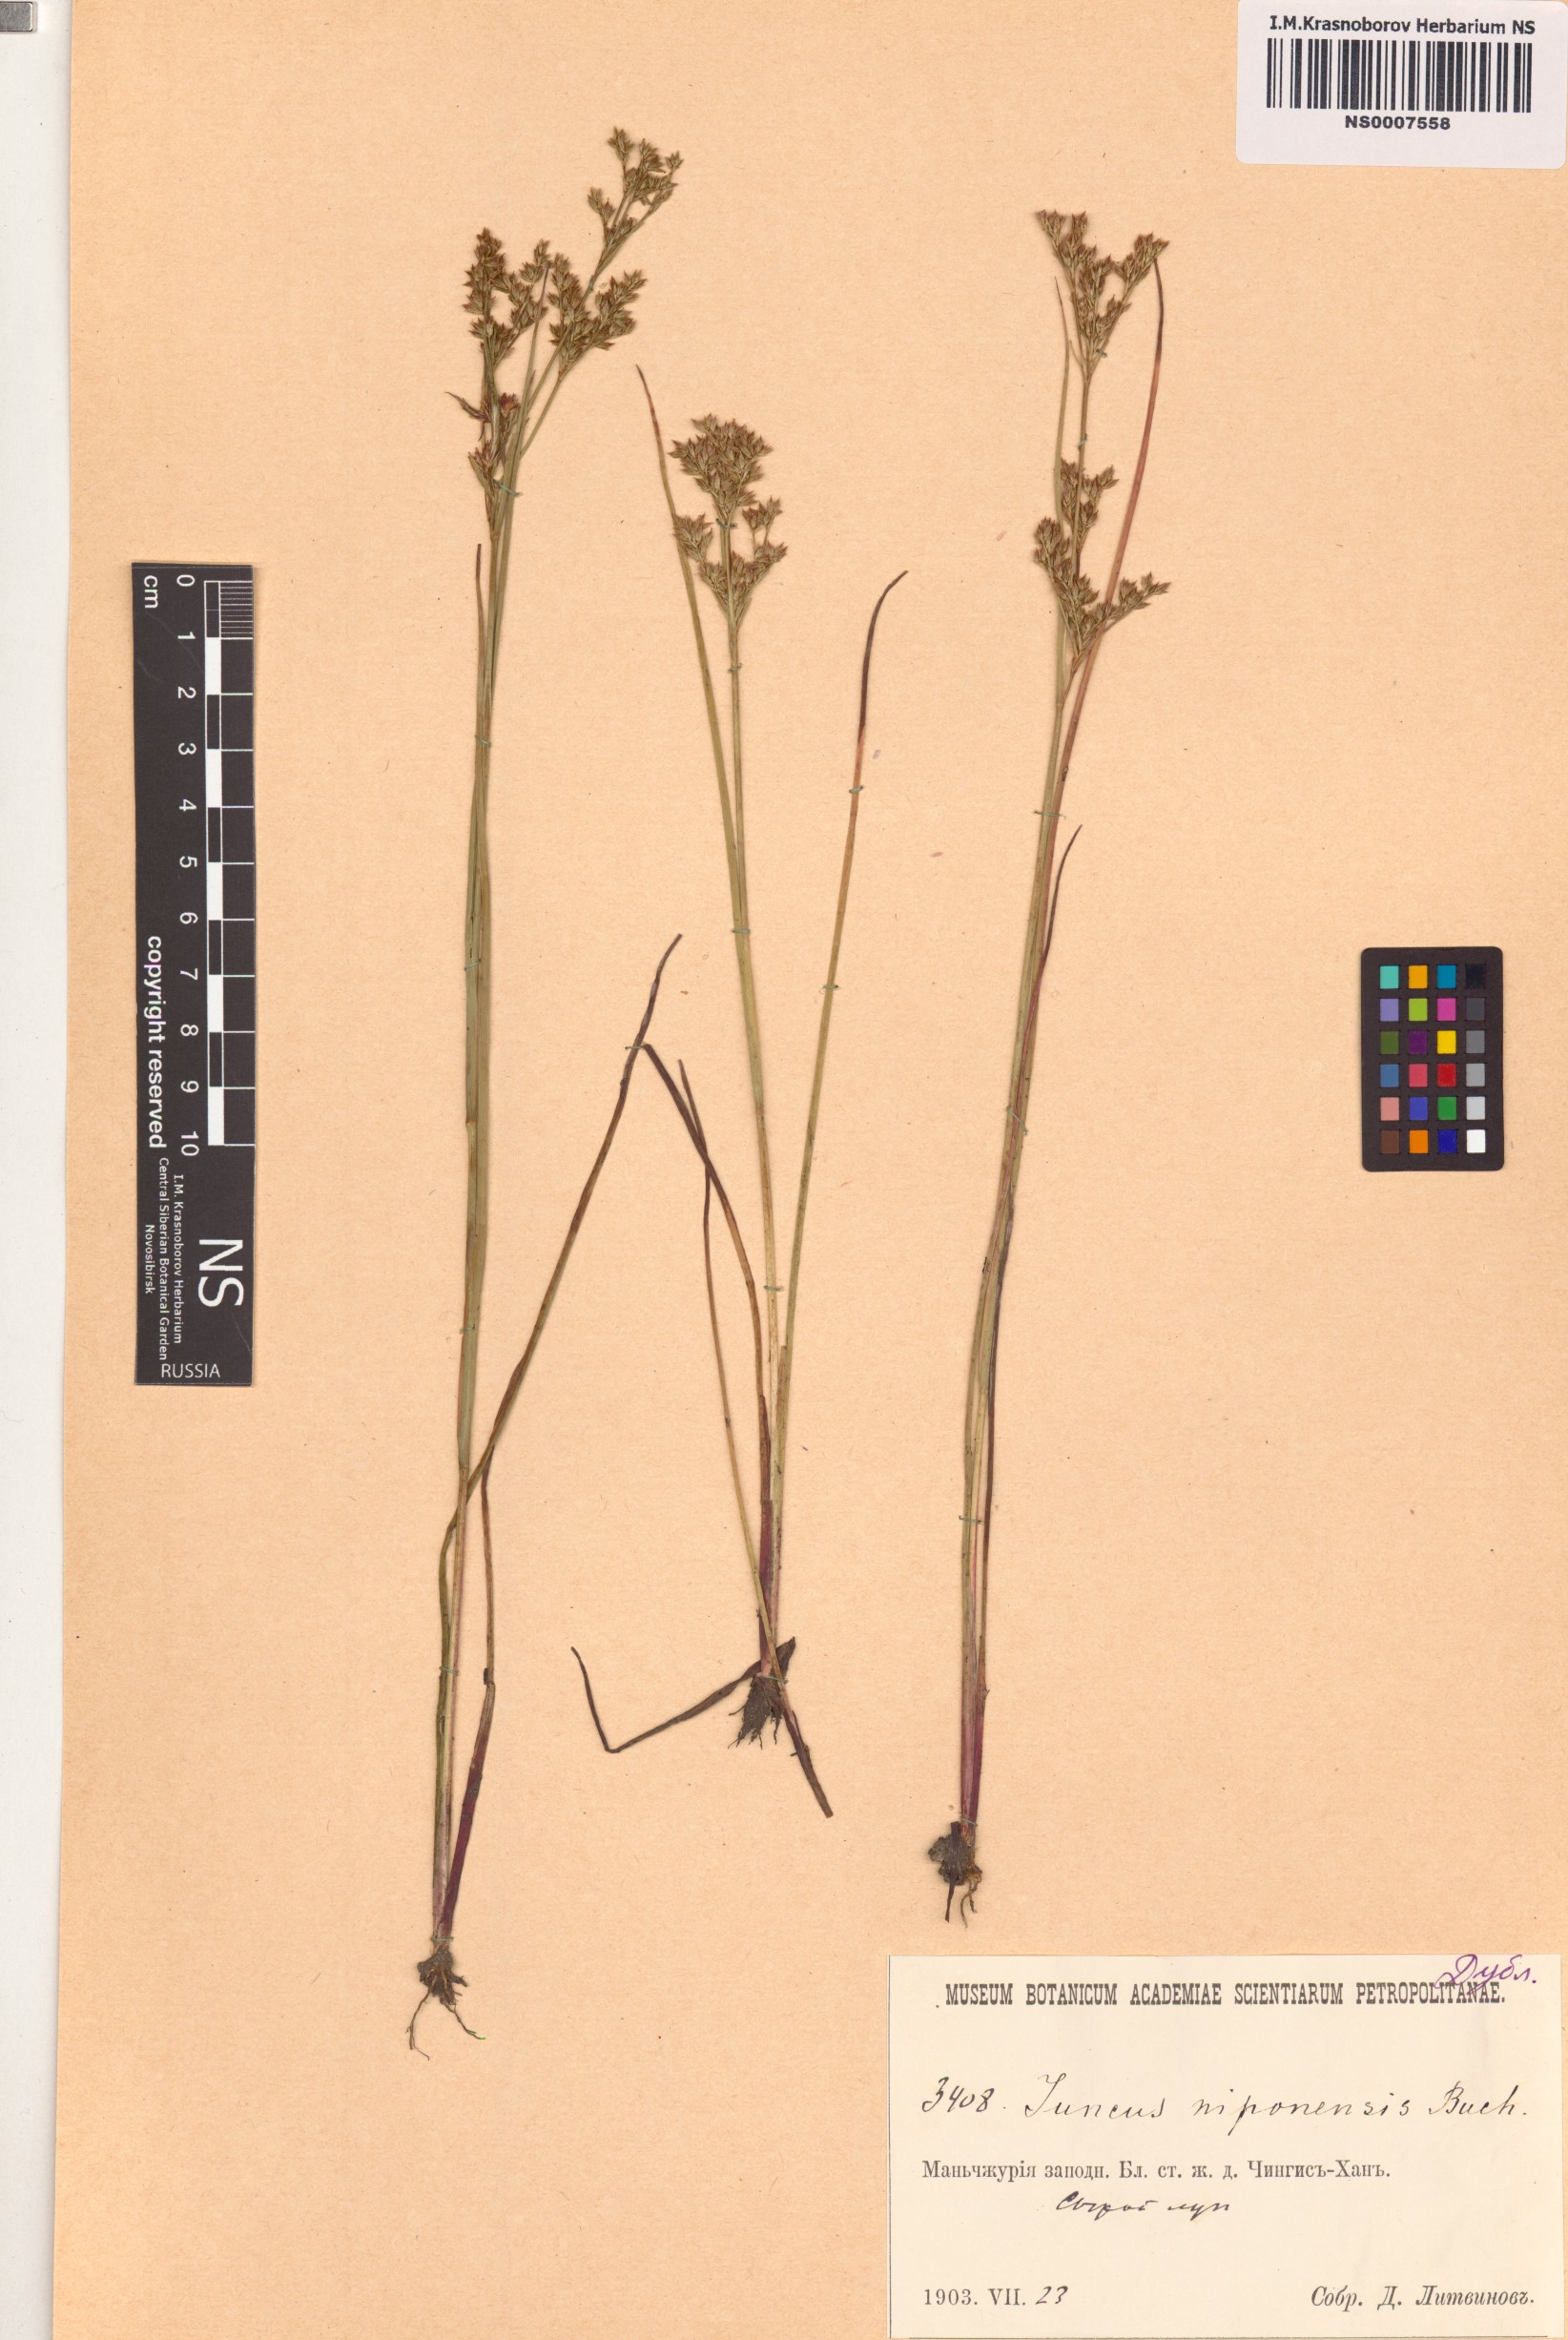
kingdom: Plantae
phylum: Tracheophyta
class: Liliopsida
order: Poales
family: Juncaceae
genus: Juncus
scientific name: Juncus papillosus
